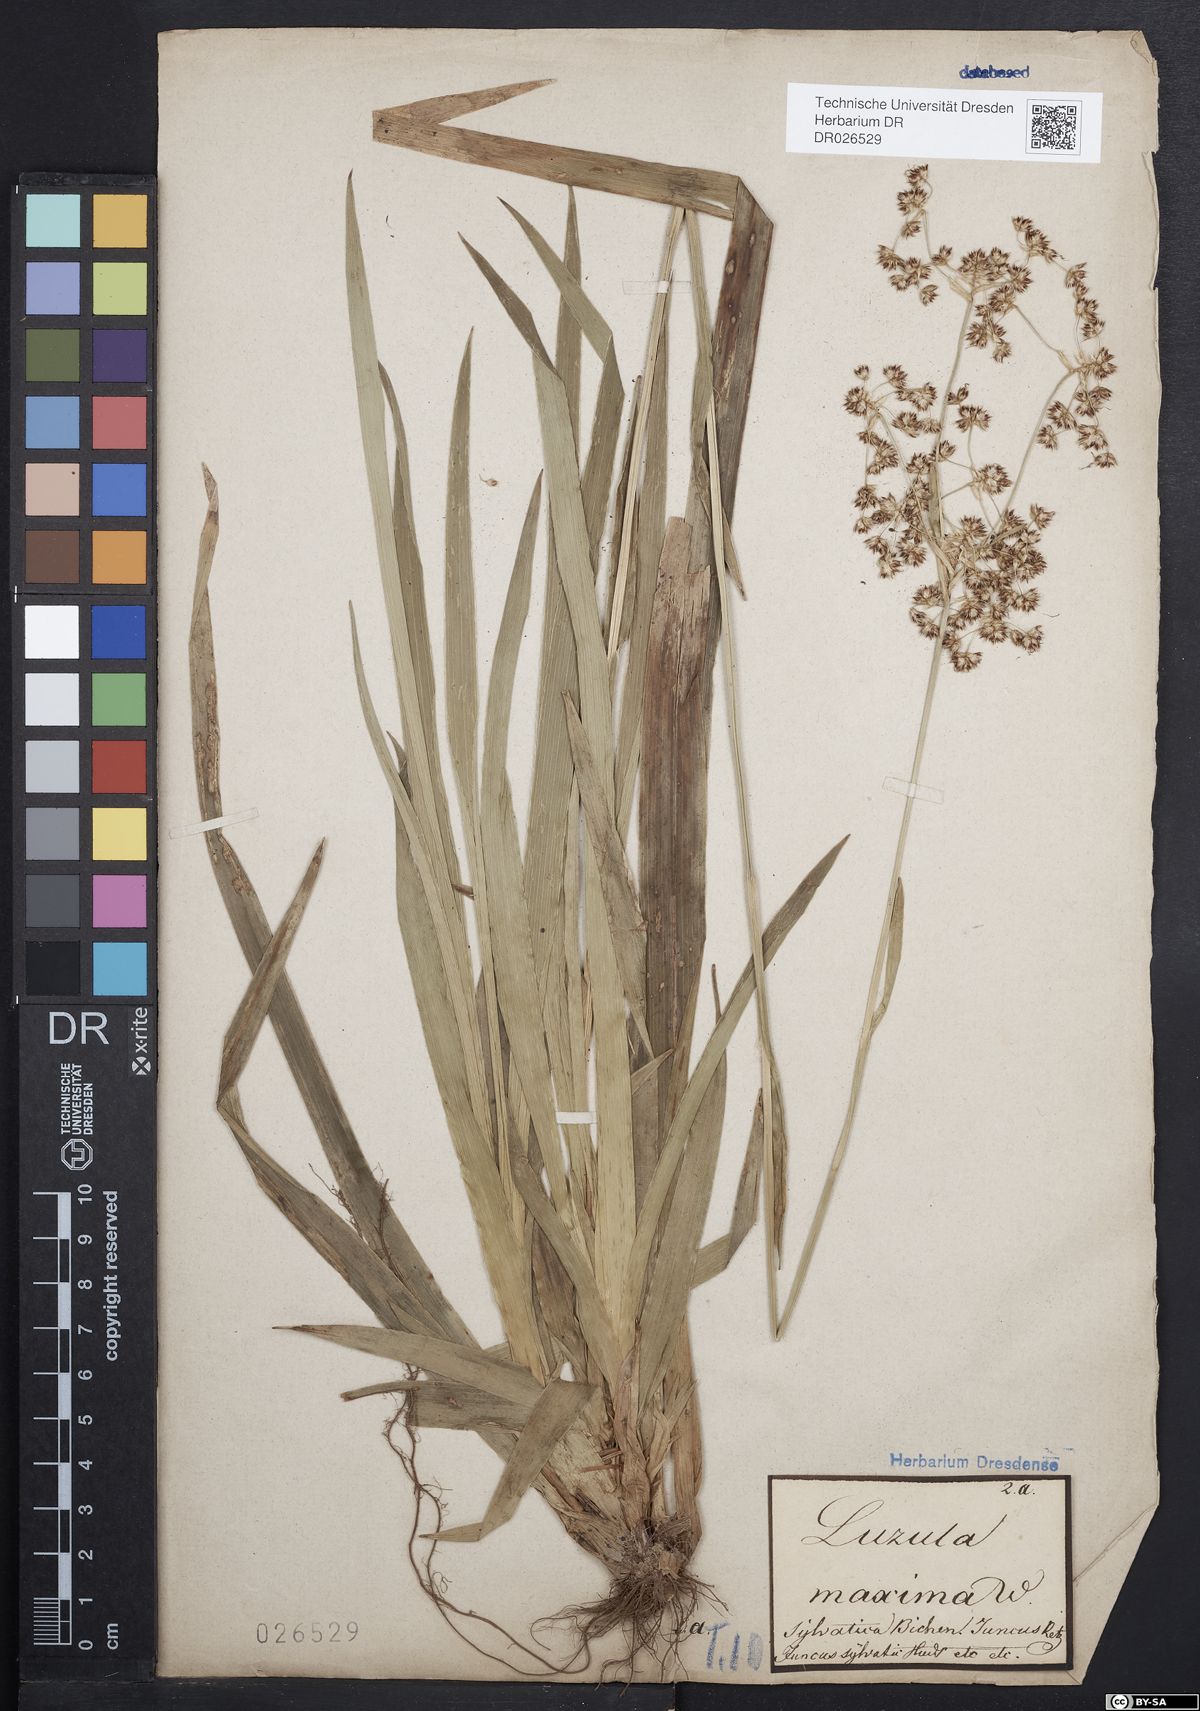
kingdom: Plantae
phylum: Tracheophyta
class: Liliopsida
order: Poales
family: Juncaceae
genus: Luzula
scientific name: Luzula sylvatica
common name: Great wood-rush
